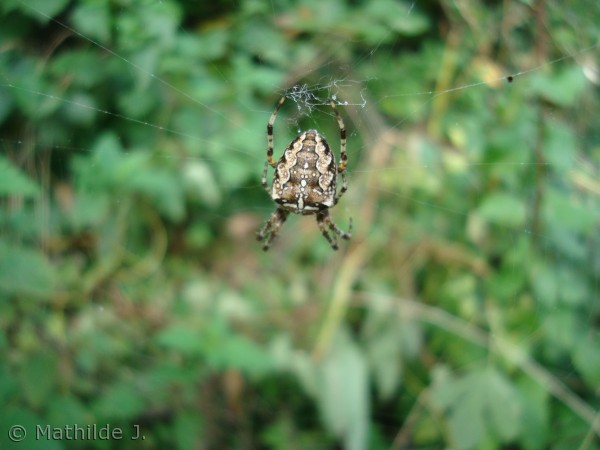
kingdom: Animalia
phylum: Arthropoda
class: Arachnida
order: Araneae
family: Araneidae
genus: Araneus
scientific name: Araneus diadematus
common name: Korsedderkop
